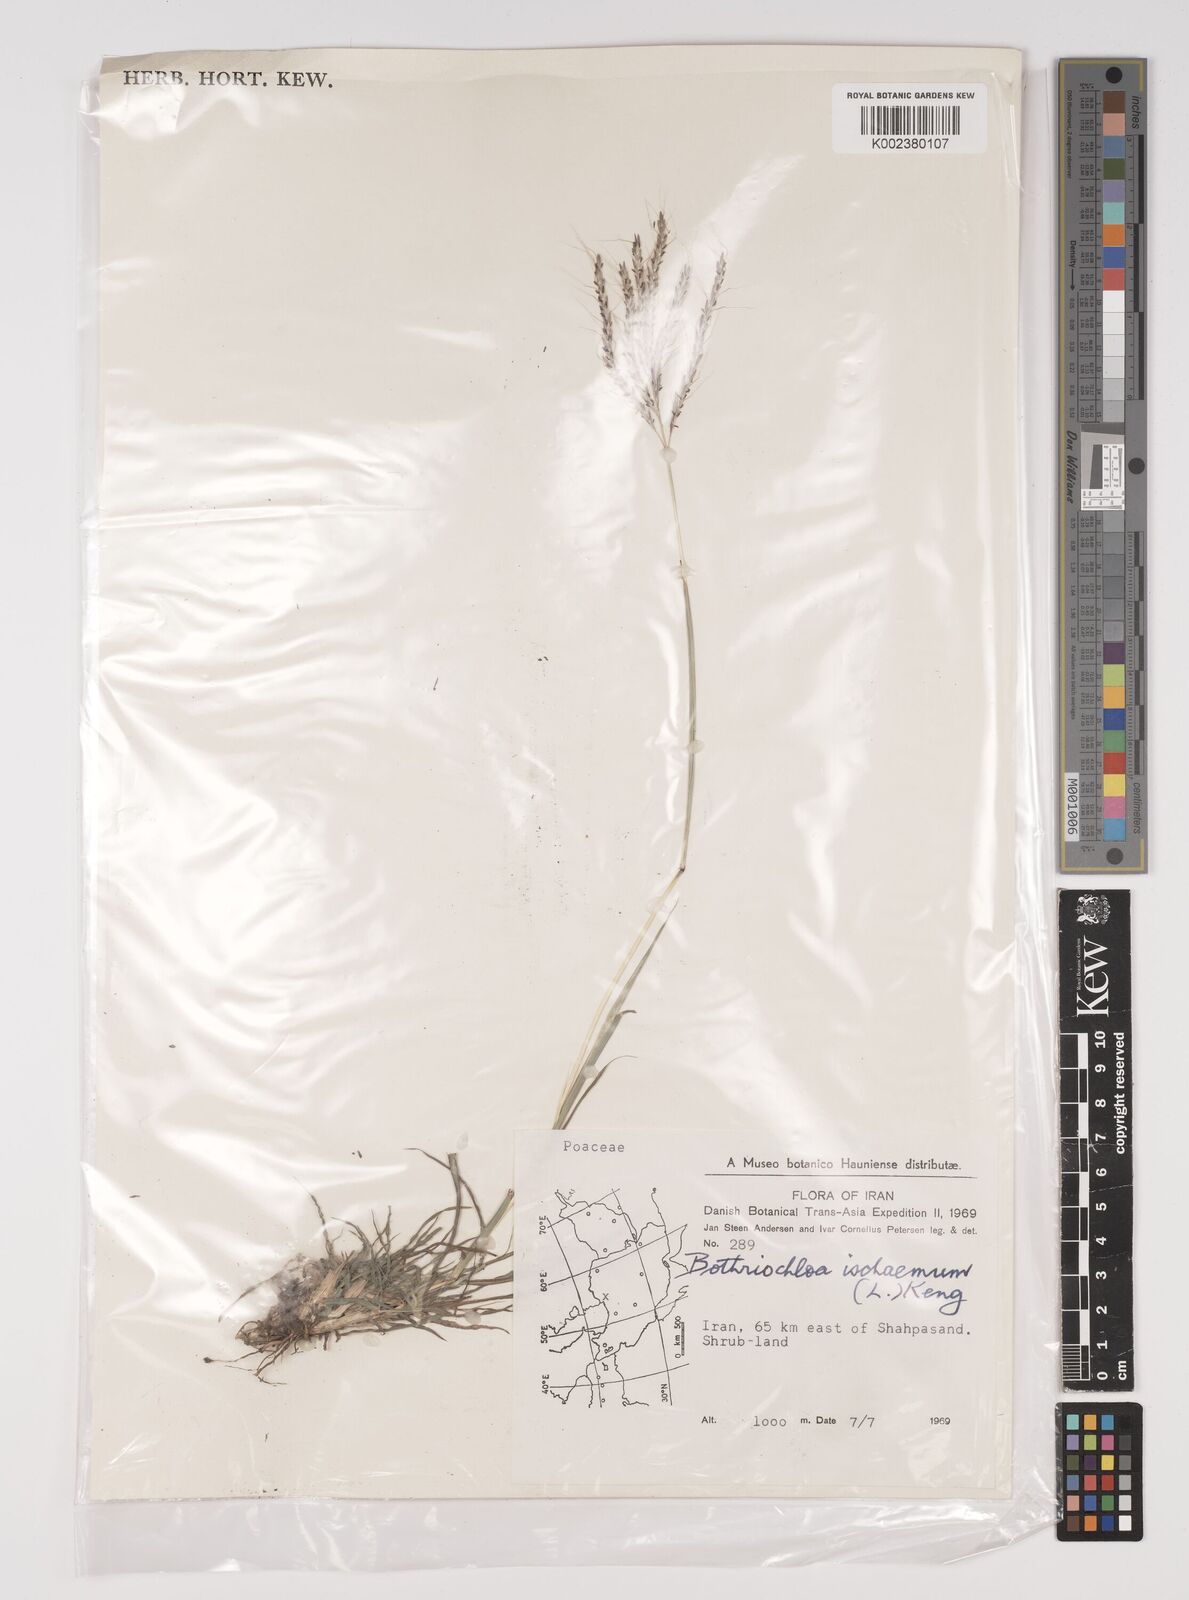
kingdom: Plantae
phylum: Tracheophyta
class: Liliopsida
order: Poales
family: Poaceae
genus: Bothriochloa
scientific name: Bothriochloa ischaemum
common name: Yellow bluestem
